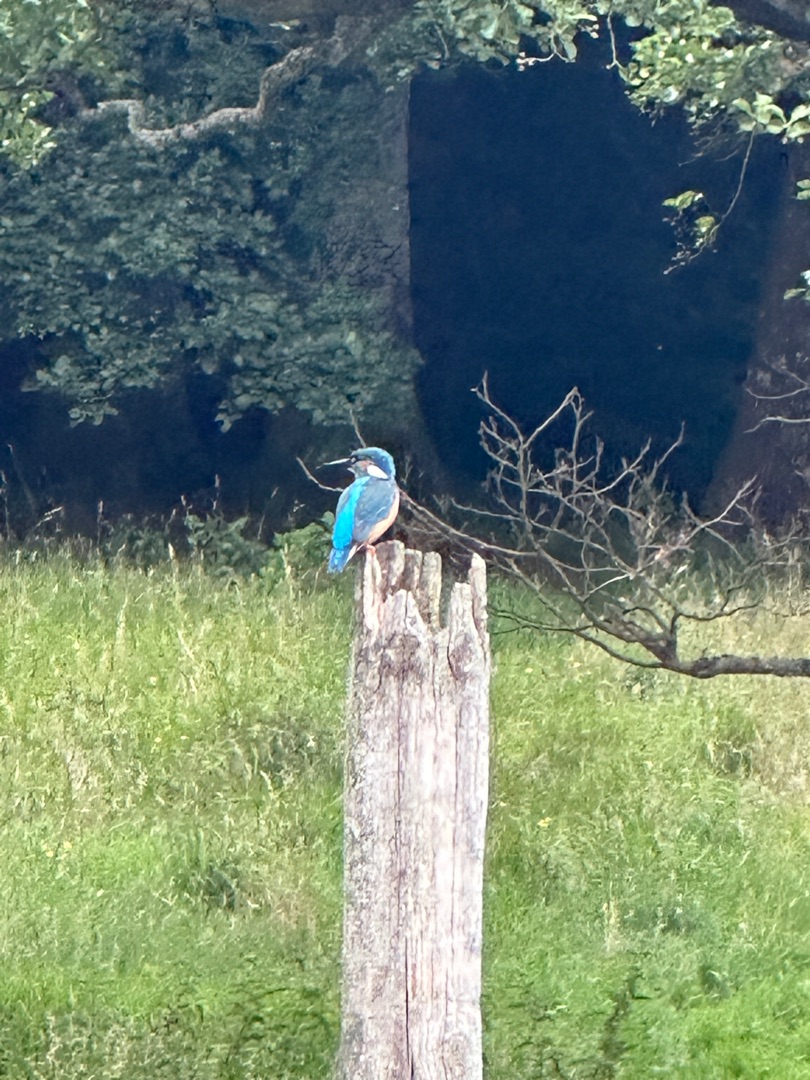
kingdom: Animalia
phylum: Chordata
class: Aves
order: Coraciiformes
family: Alcedinidae
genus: Alcedo
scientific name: Alcedo atthis
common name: Isfugl
